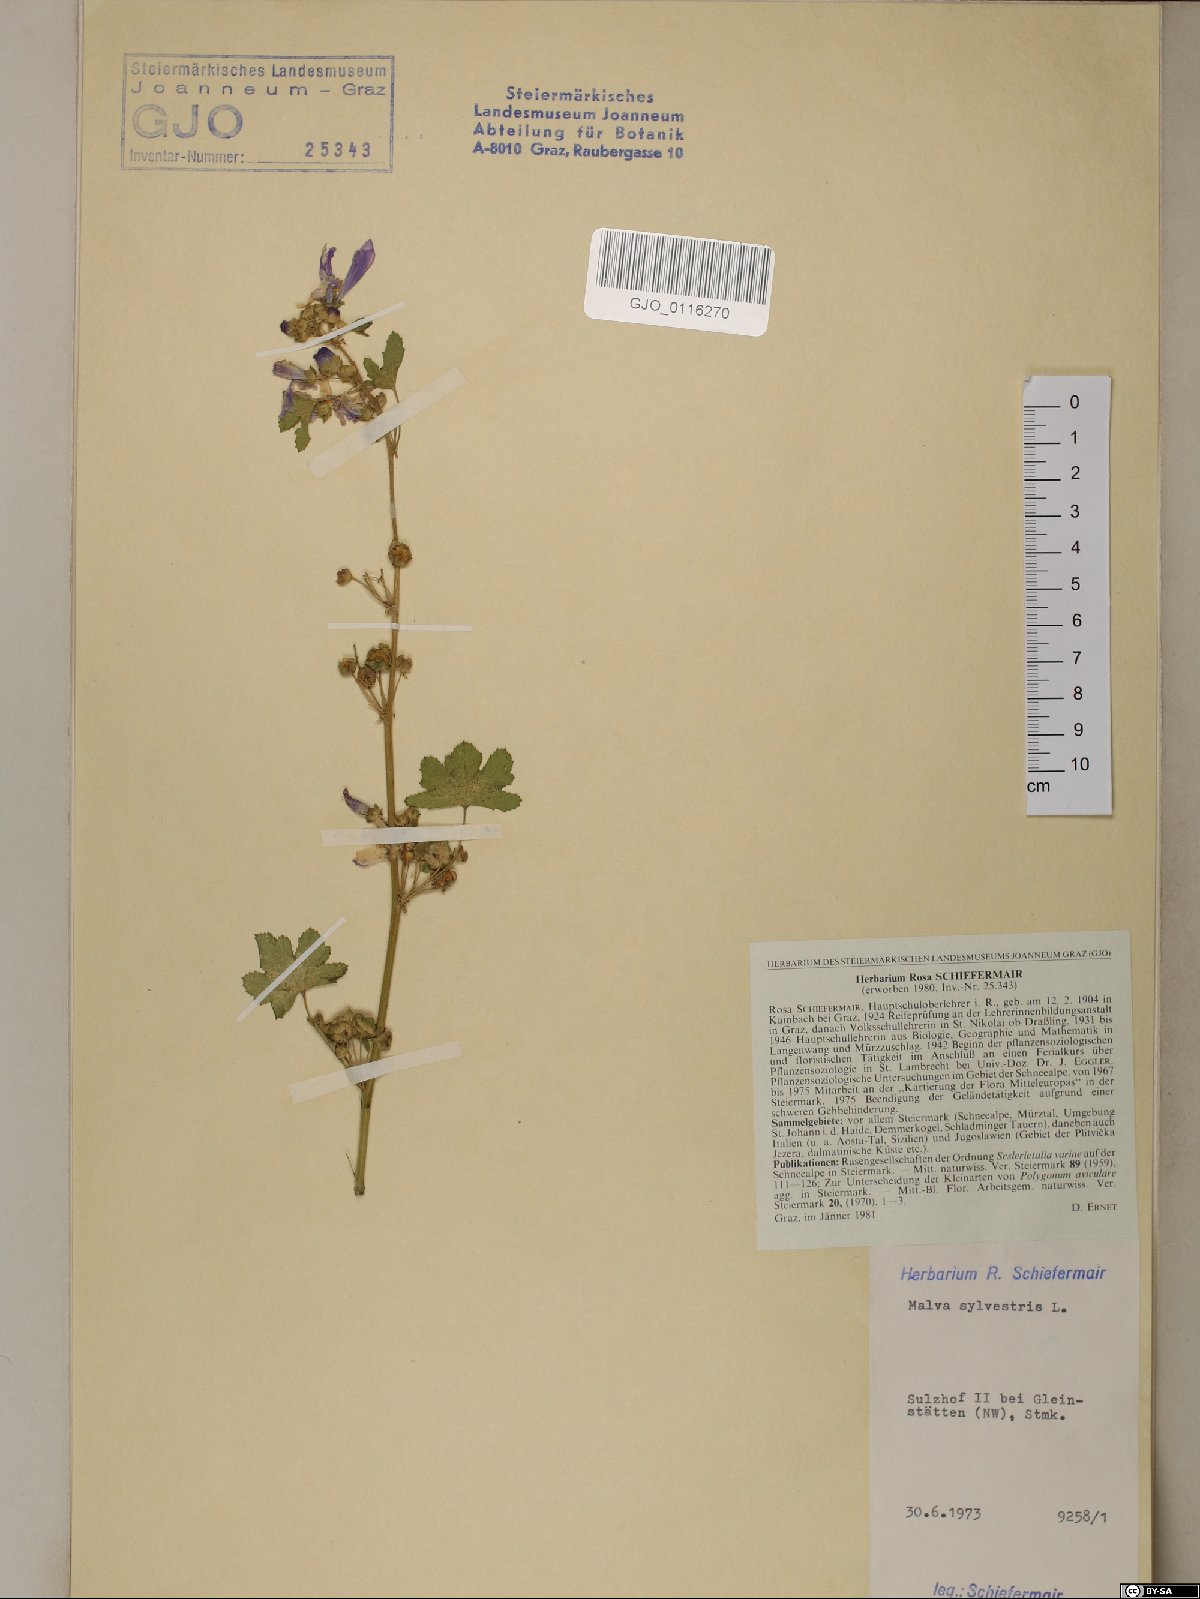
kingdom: Plantae
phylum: Tracheophyta
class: Magnoliopsida
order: Malvales
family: Malvaceae
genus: Malva
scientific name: Malva sylvestris
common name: Common mallow
